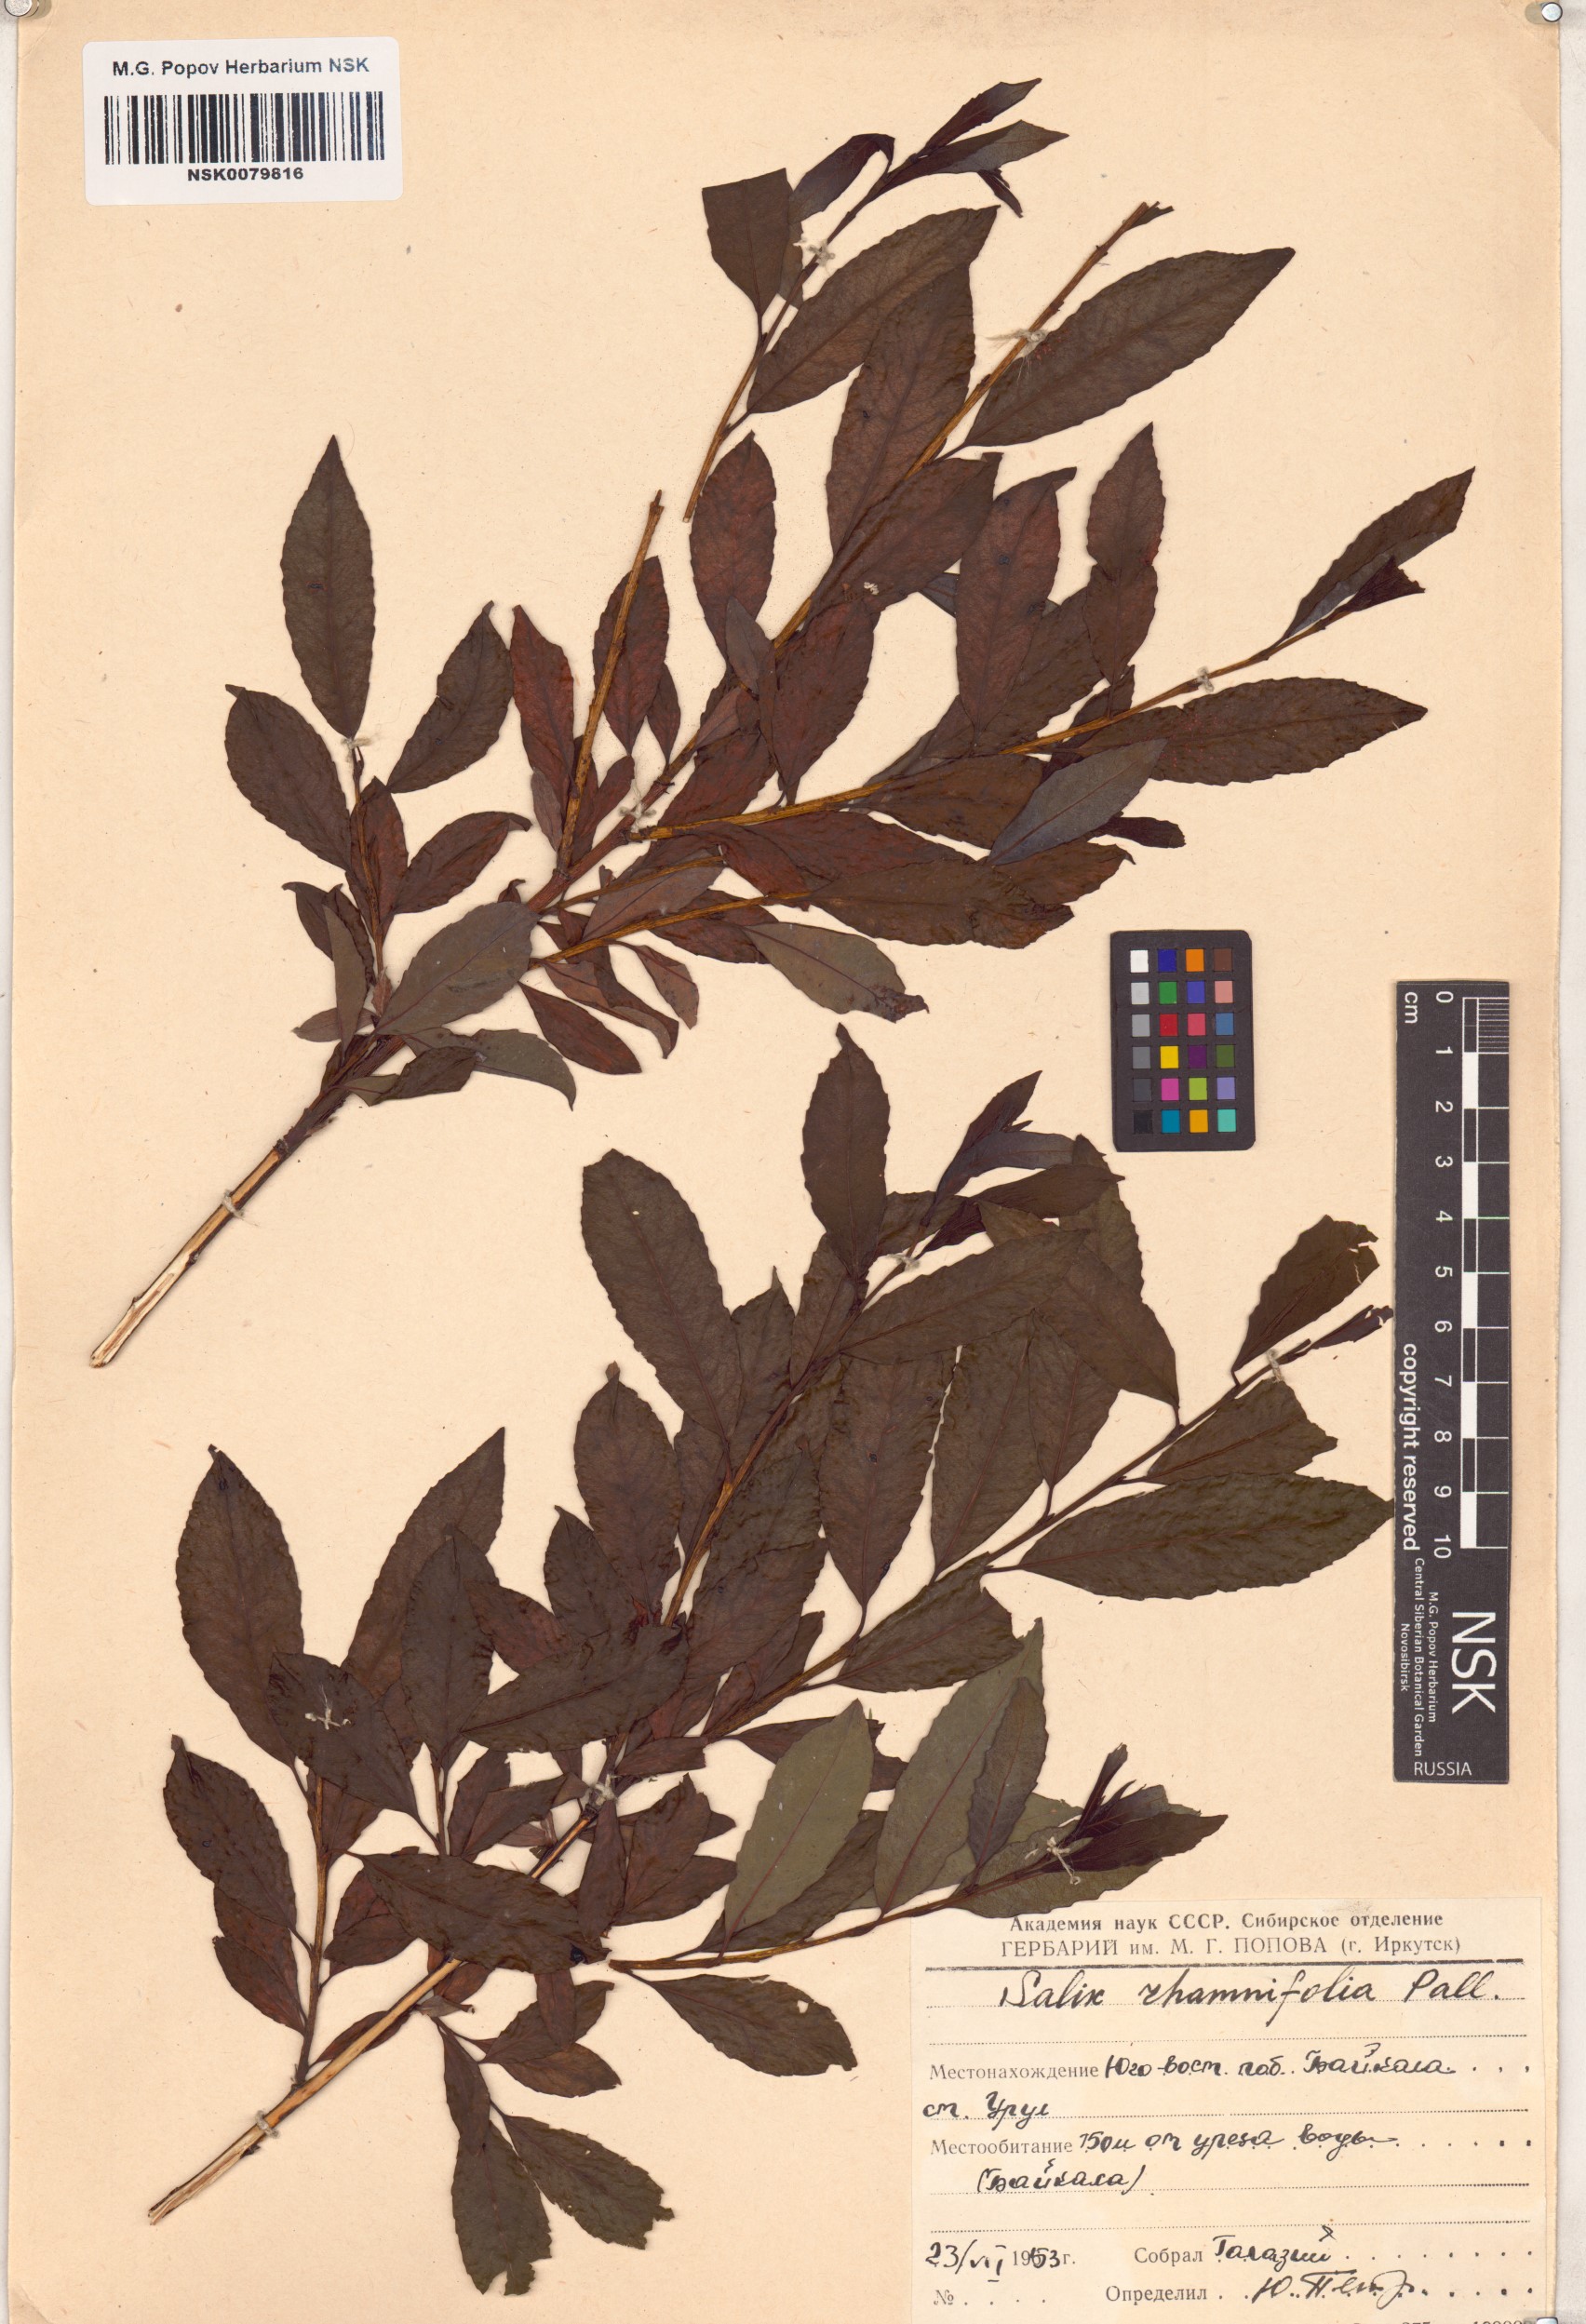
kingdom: Plantae
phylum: Tracheophyta
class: Magnoliopsida
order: Malpighiales
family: Salicaceae
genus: Salix
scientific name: Salix rhamnifolia
